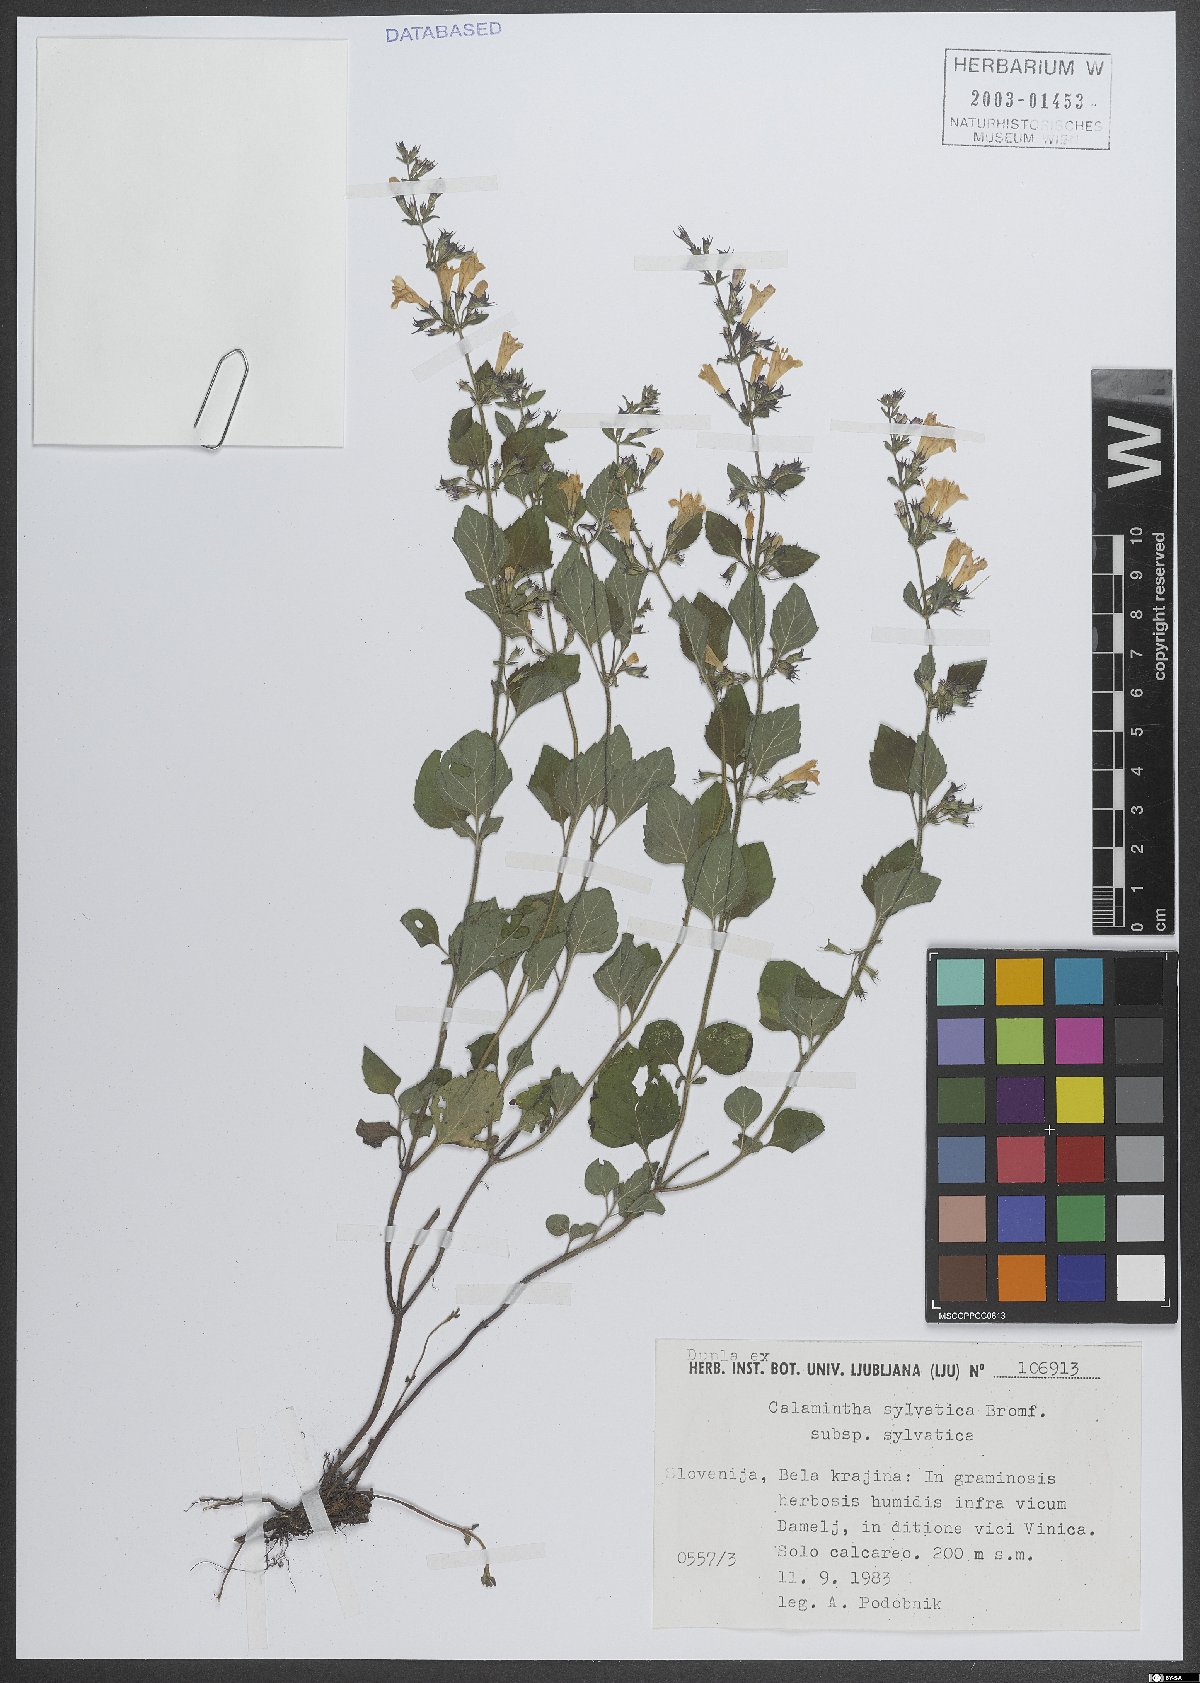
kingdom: Plantae
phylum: Tracheophyta
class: Magnoliopsida
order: Lamiales
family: Lamiaceae
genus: Clinopodium
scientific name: Clinopodium menthifolium
